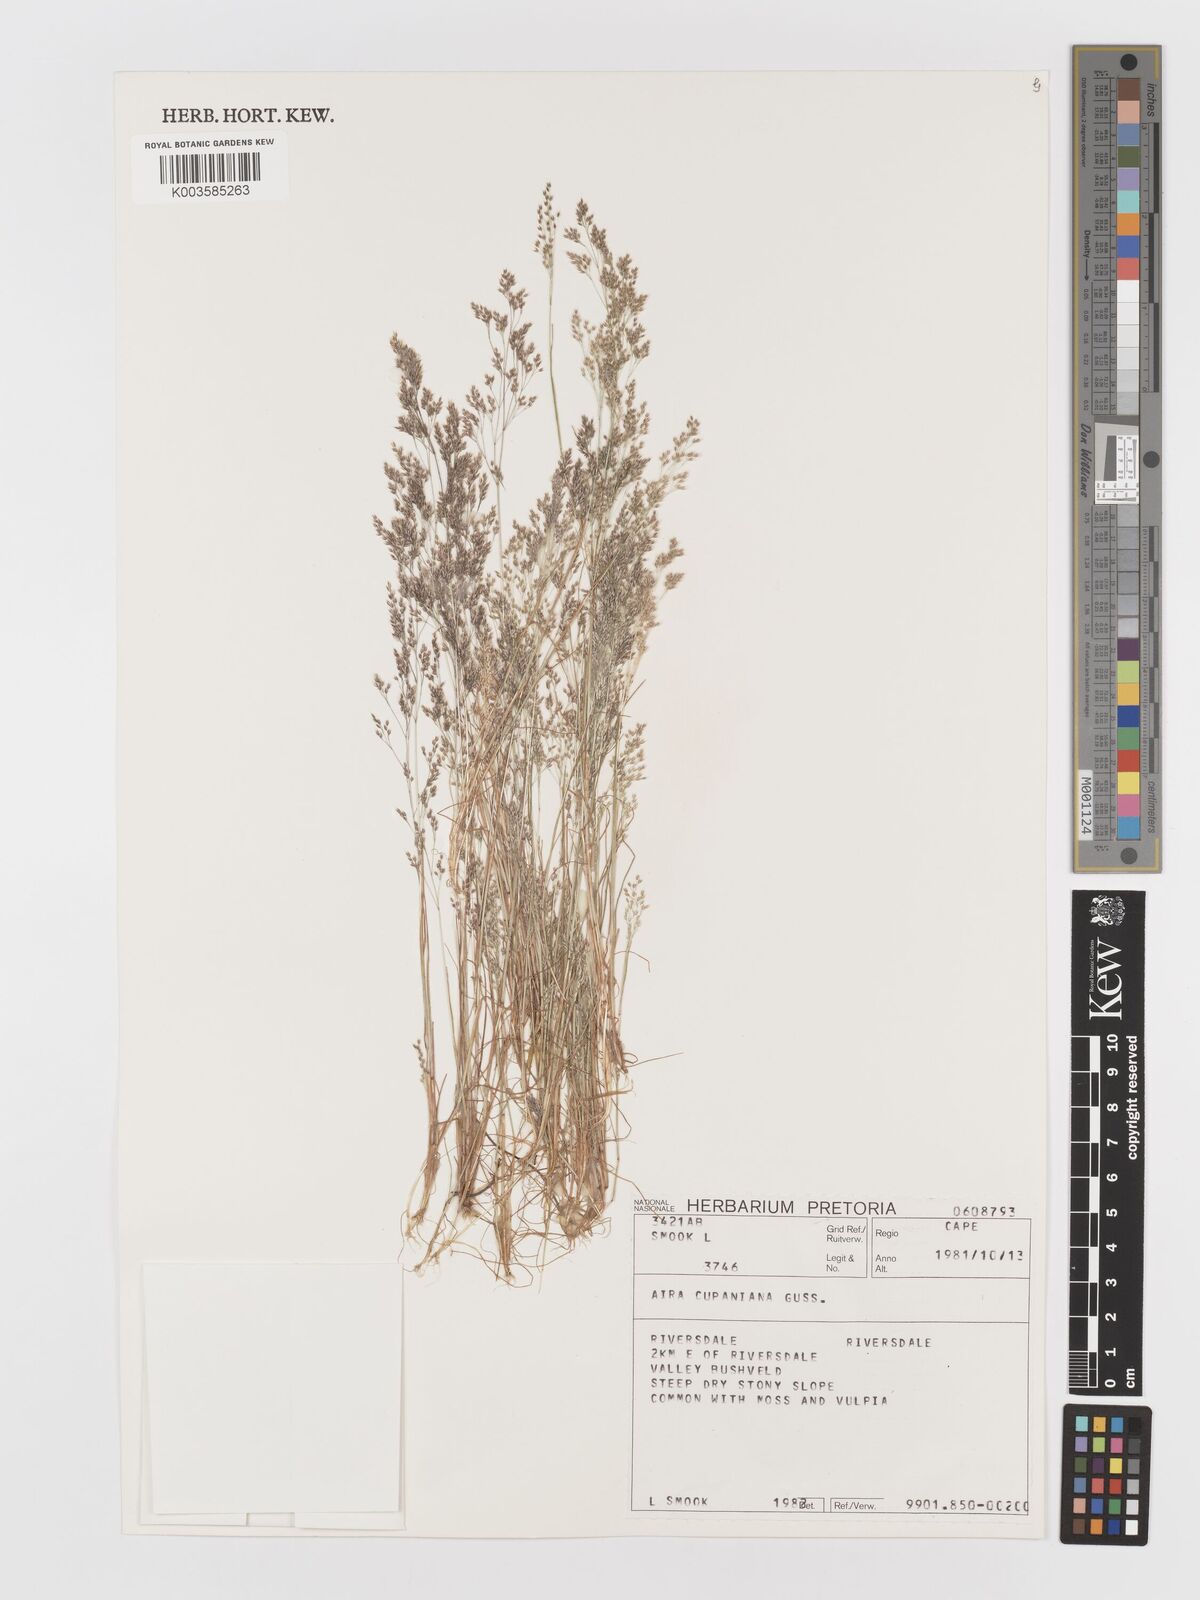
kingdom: Plantae
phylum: Tracheophyta
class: Liliopsida
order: Poales
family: Poaceae
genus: Aira
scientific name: Aira cupaniana
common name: Silver hairgrass
